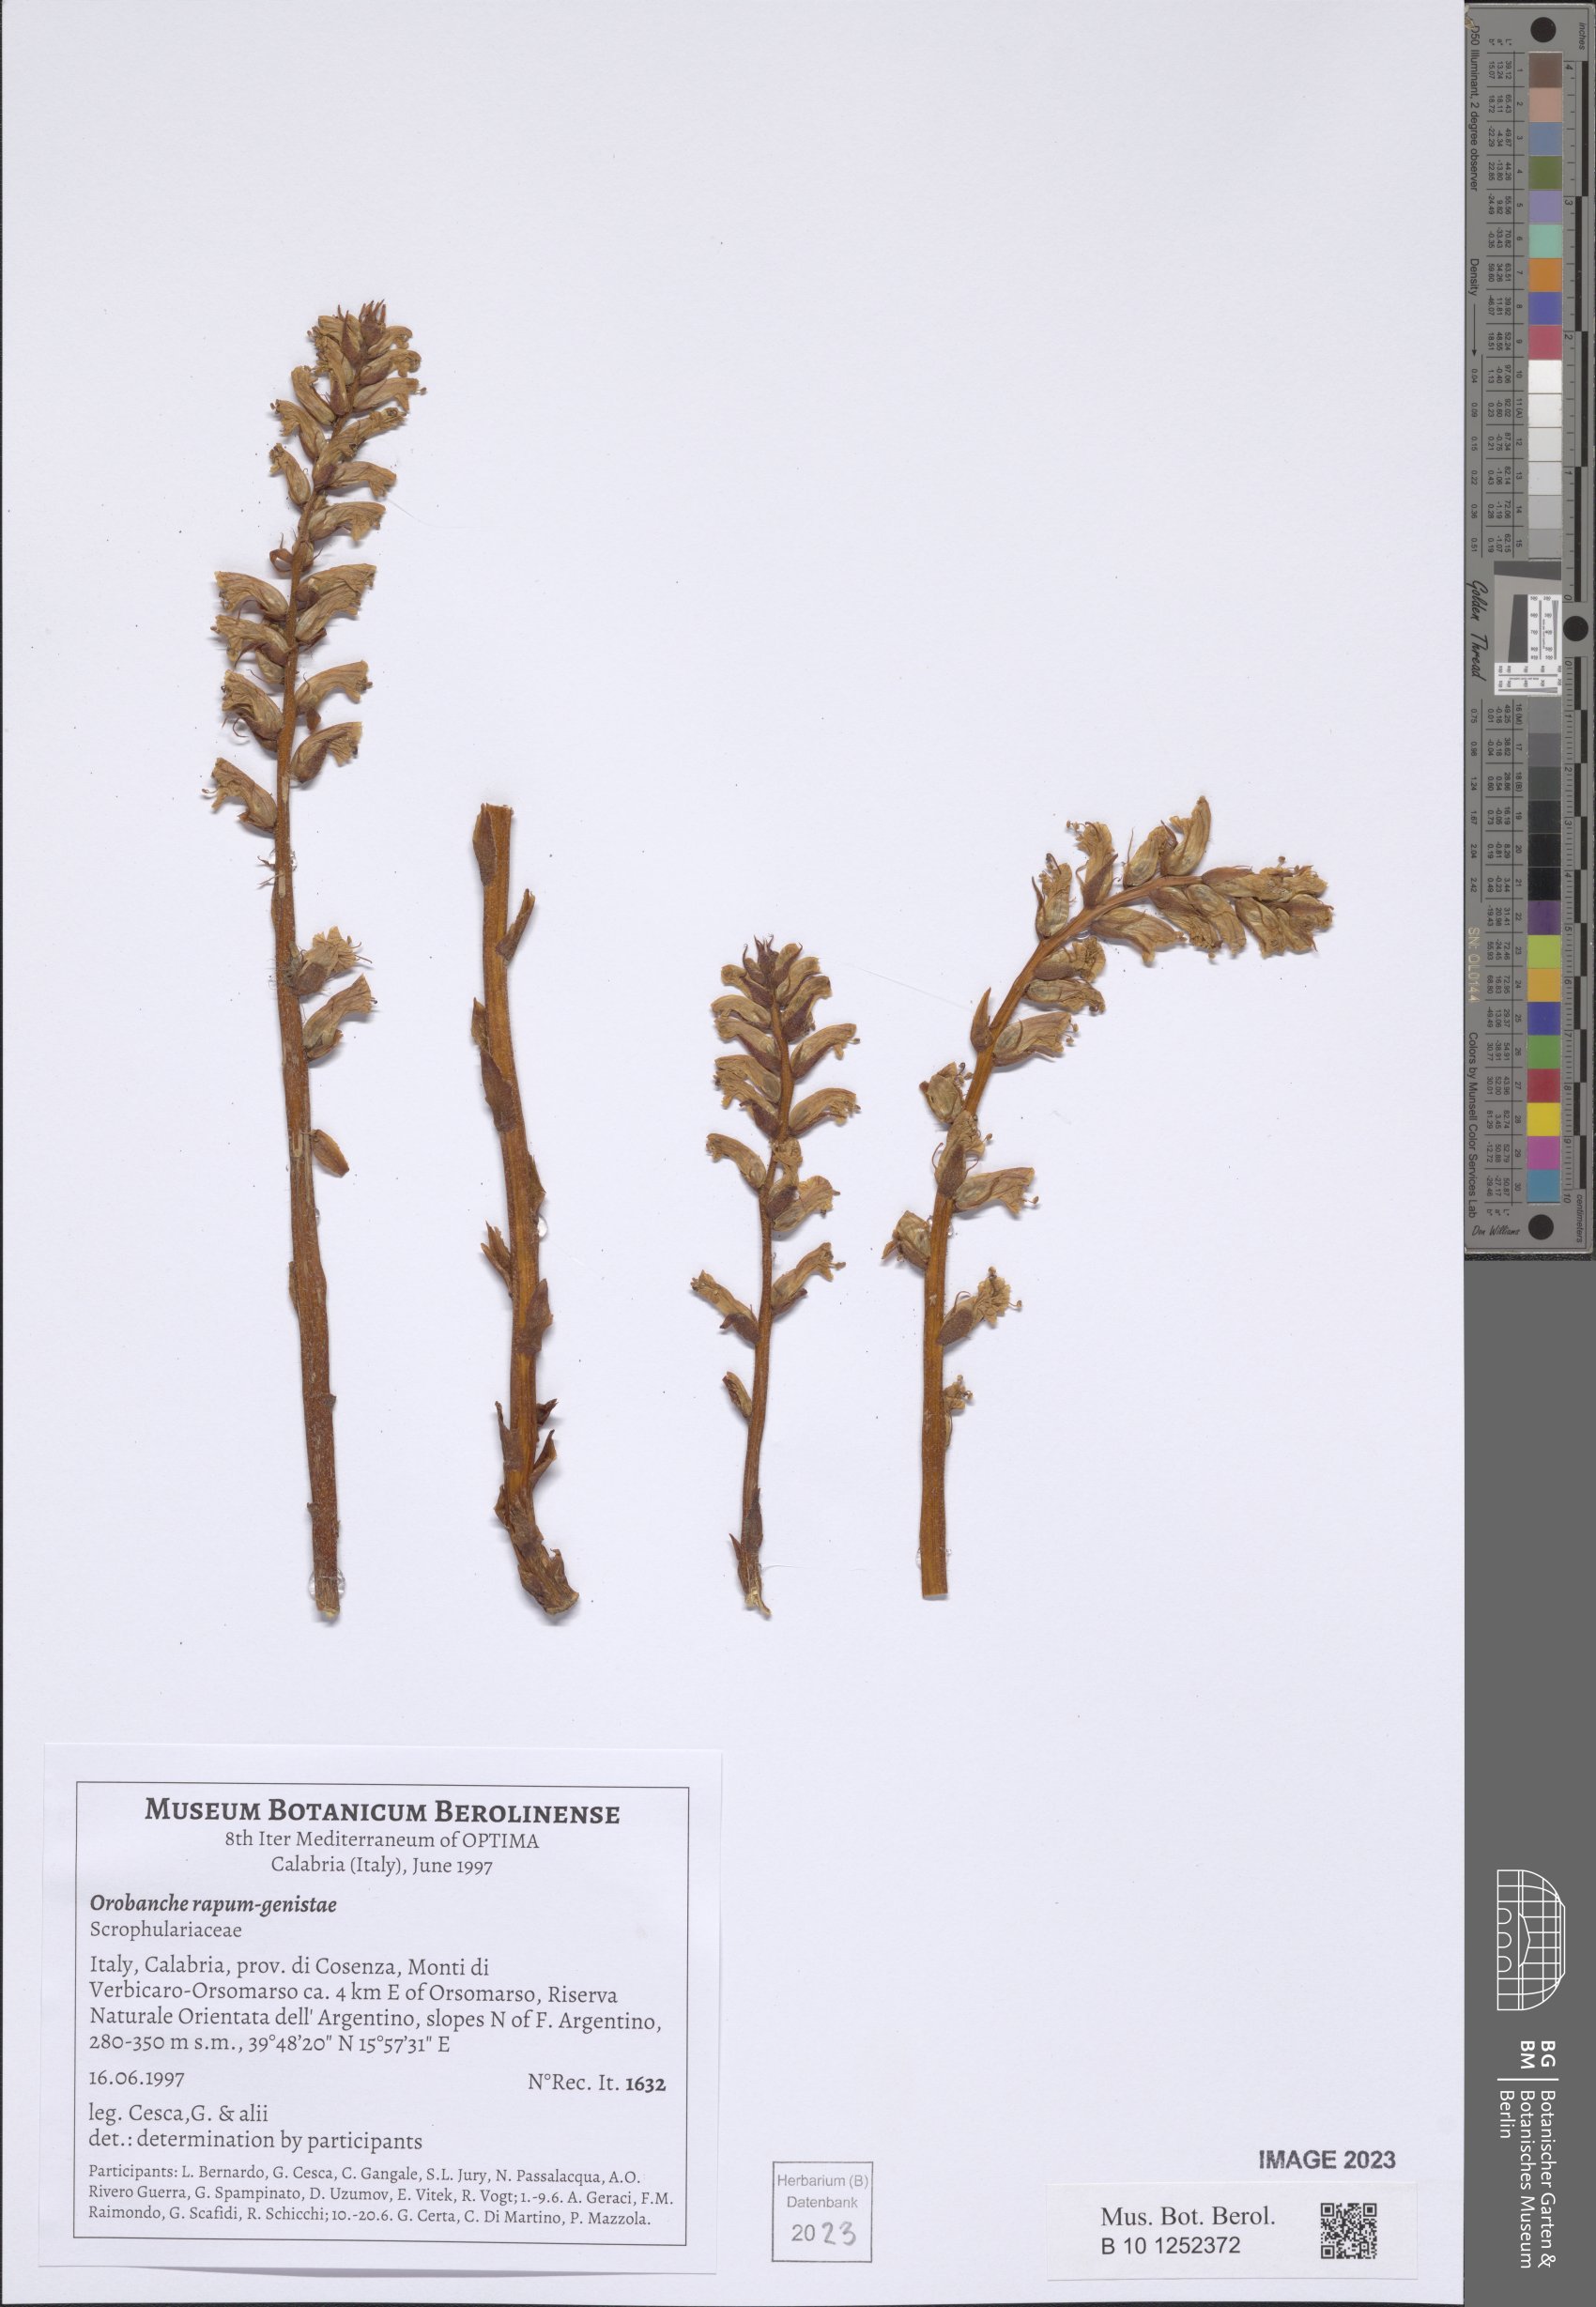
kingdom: Plantae
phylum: Tracheophyta
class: Magnoliopsida
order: Lamiales
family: Orobanchaceae
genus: Orobanche
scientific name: Orobanche rapum-genistae
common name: Greater broomrape
